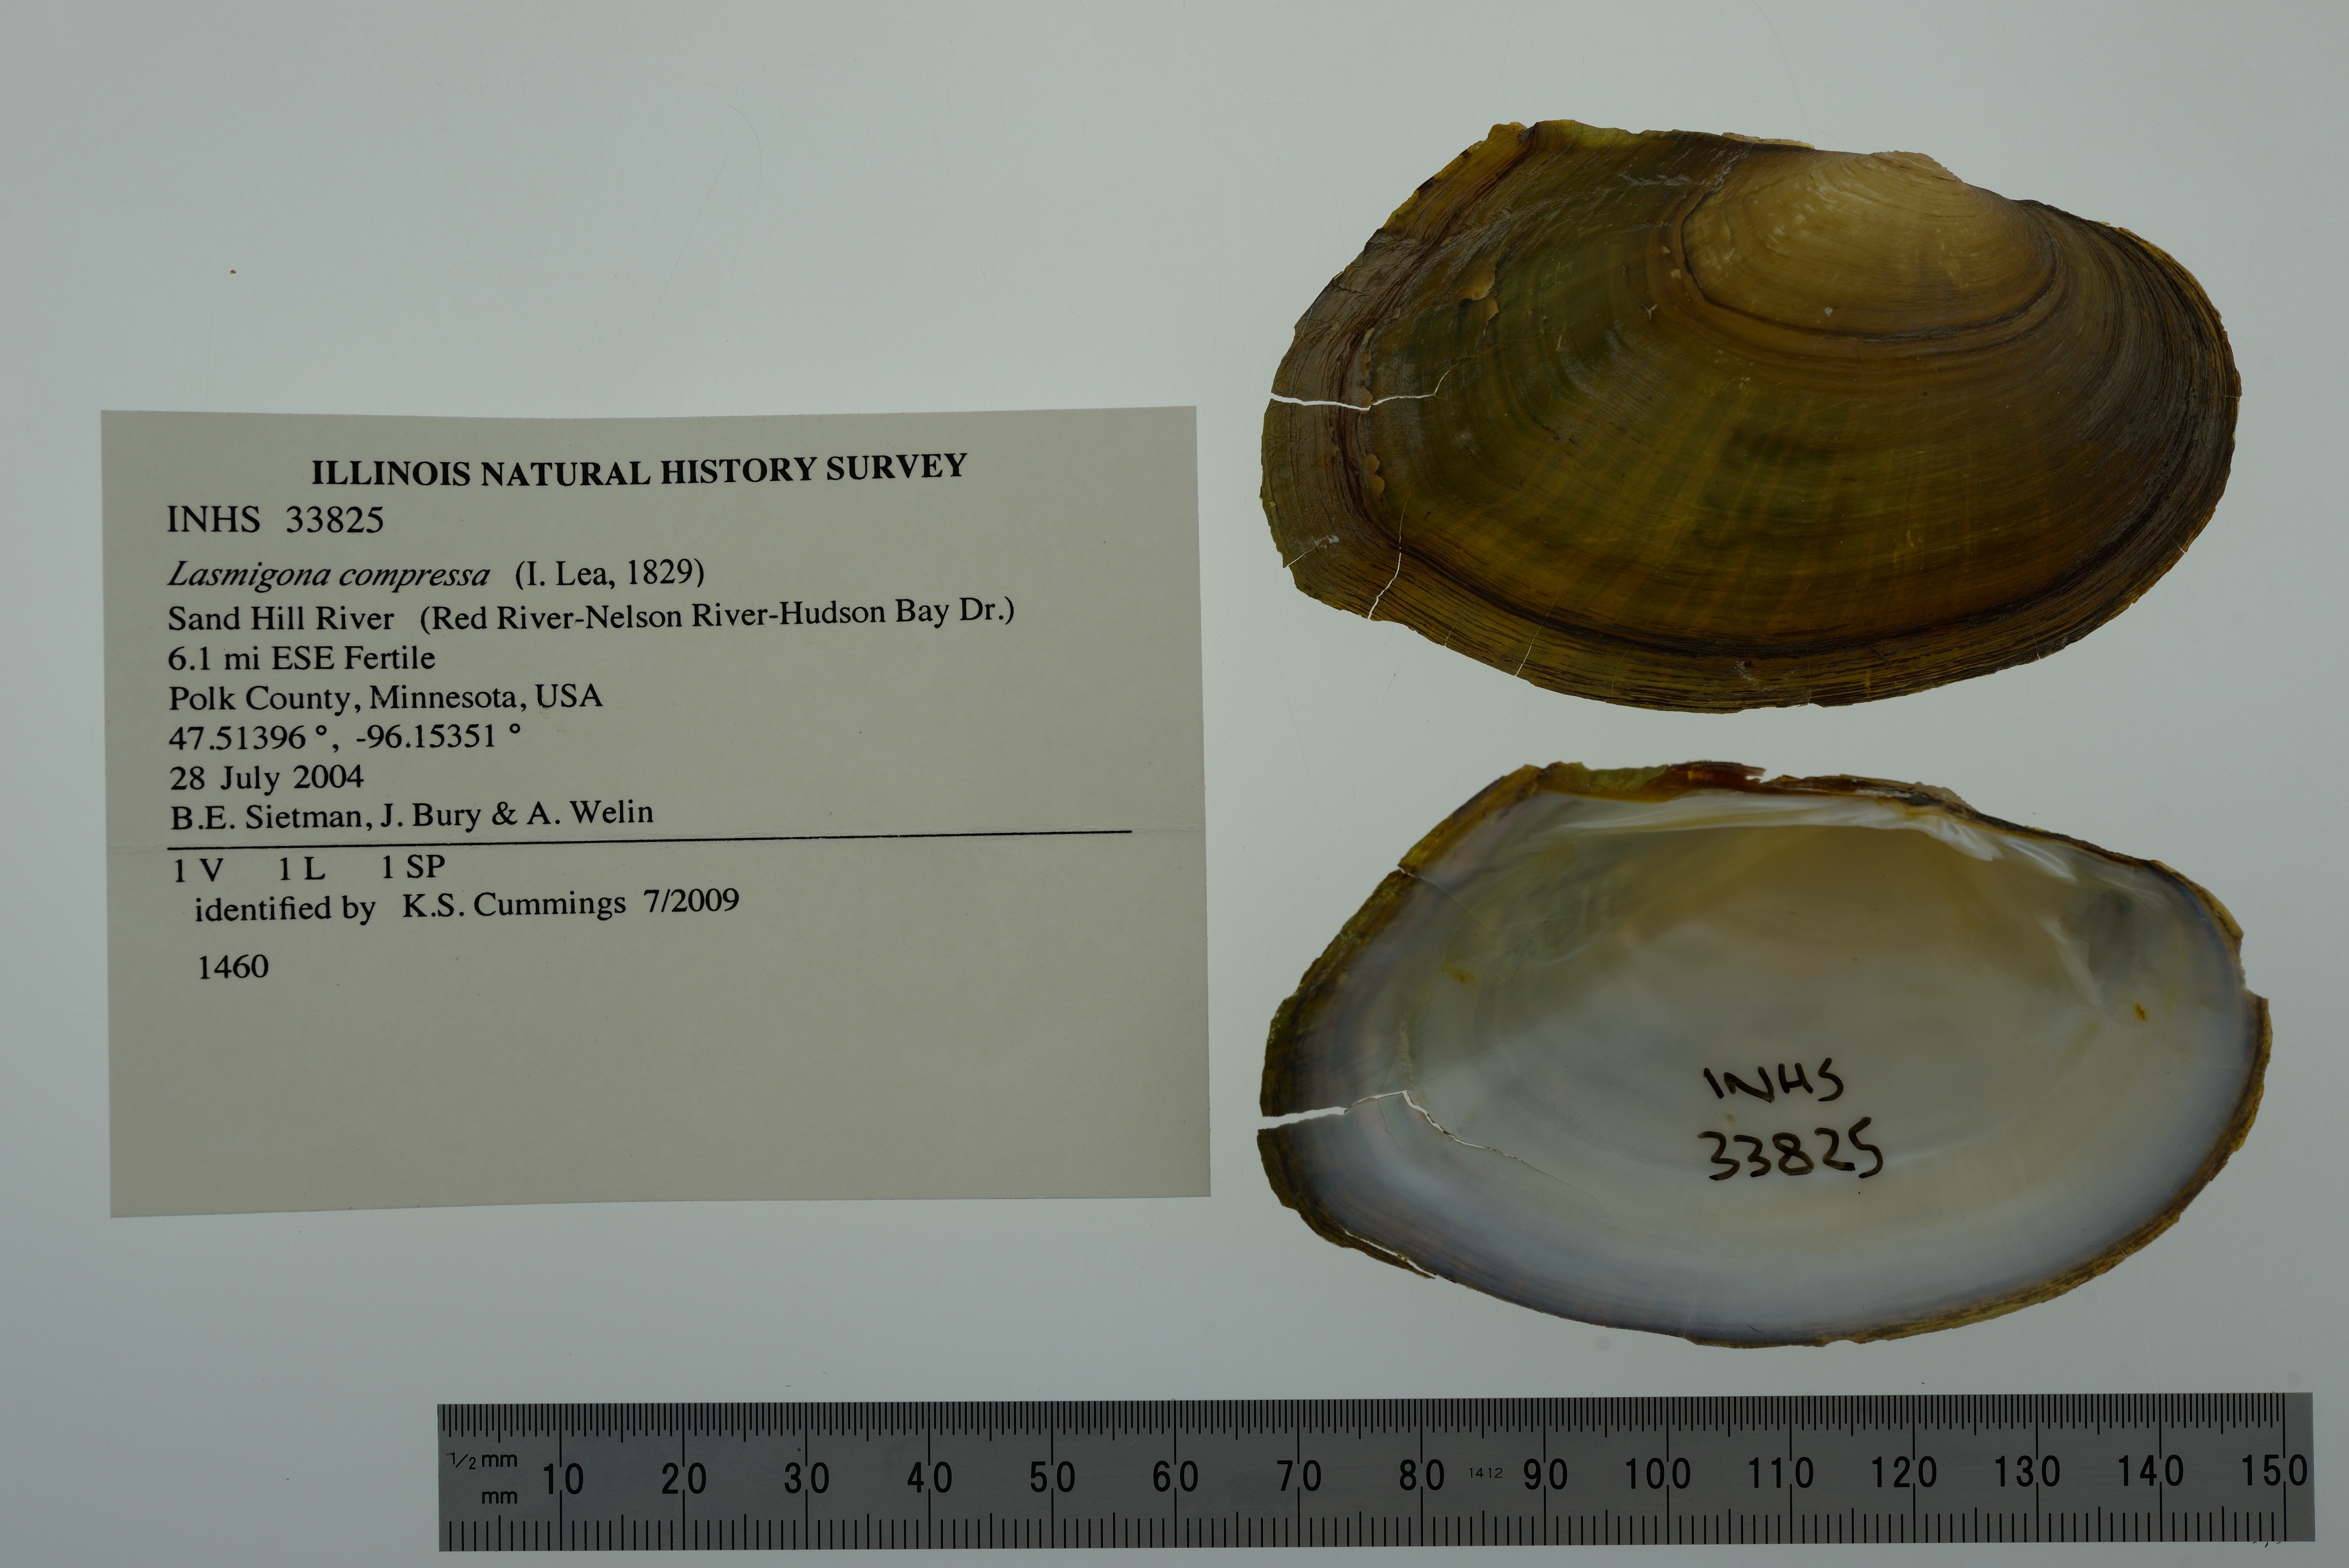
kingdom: Animalia
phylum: Mollusca
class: Bivalvia
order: Unionida
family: Unionidae
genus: Lasmigona
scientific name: Lasmigona compressa
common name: Creek heelsplitter
